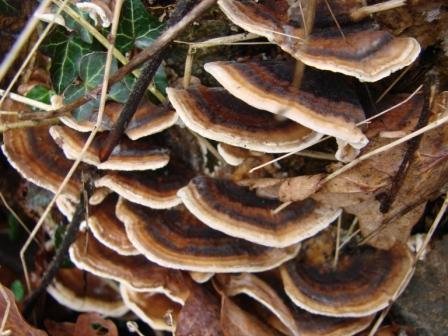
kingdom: Fungi
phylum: Basidiomycota
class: Agaricomycetes
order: Polyporales
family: Polyporaceae
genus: Trametes
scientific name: Trametes ochracea
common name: bæltet læderporesvamp
